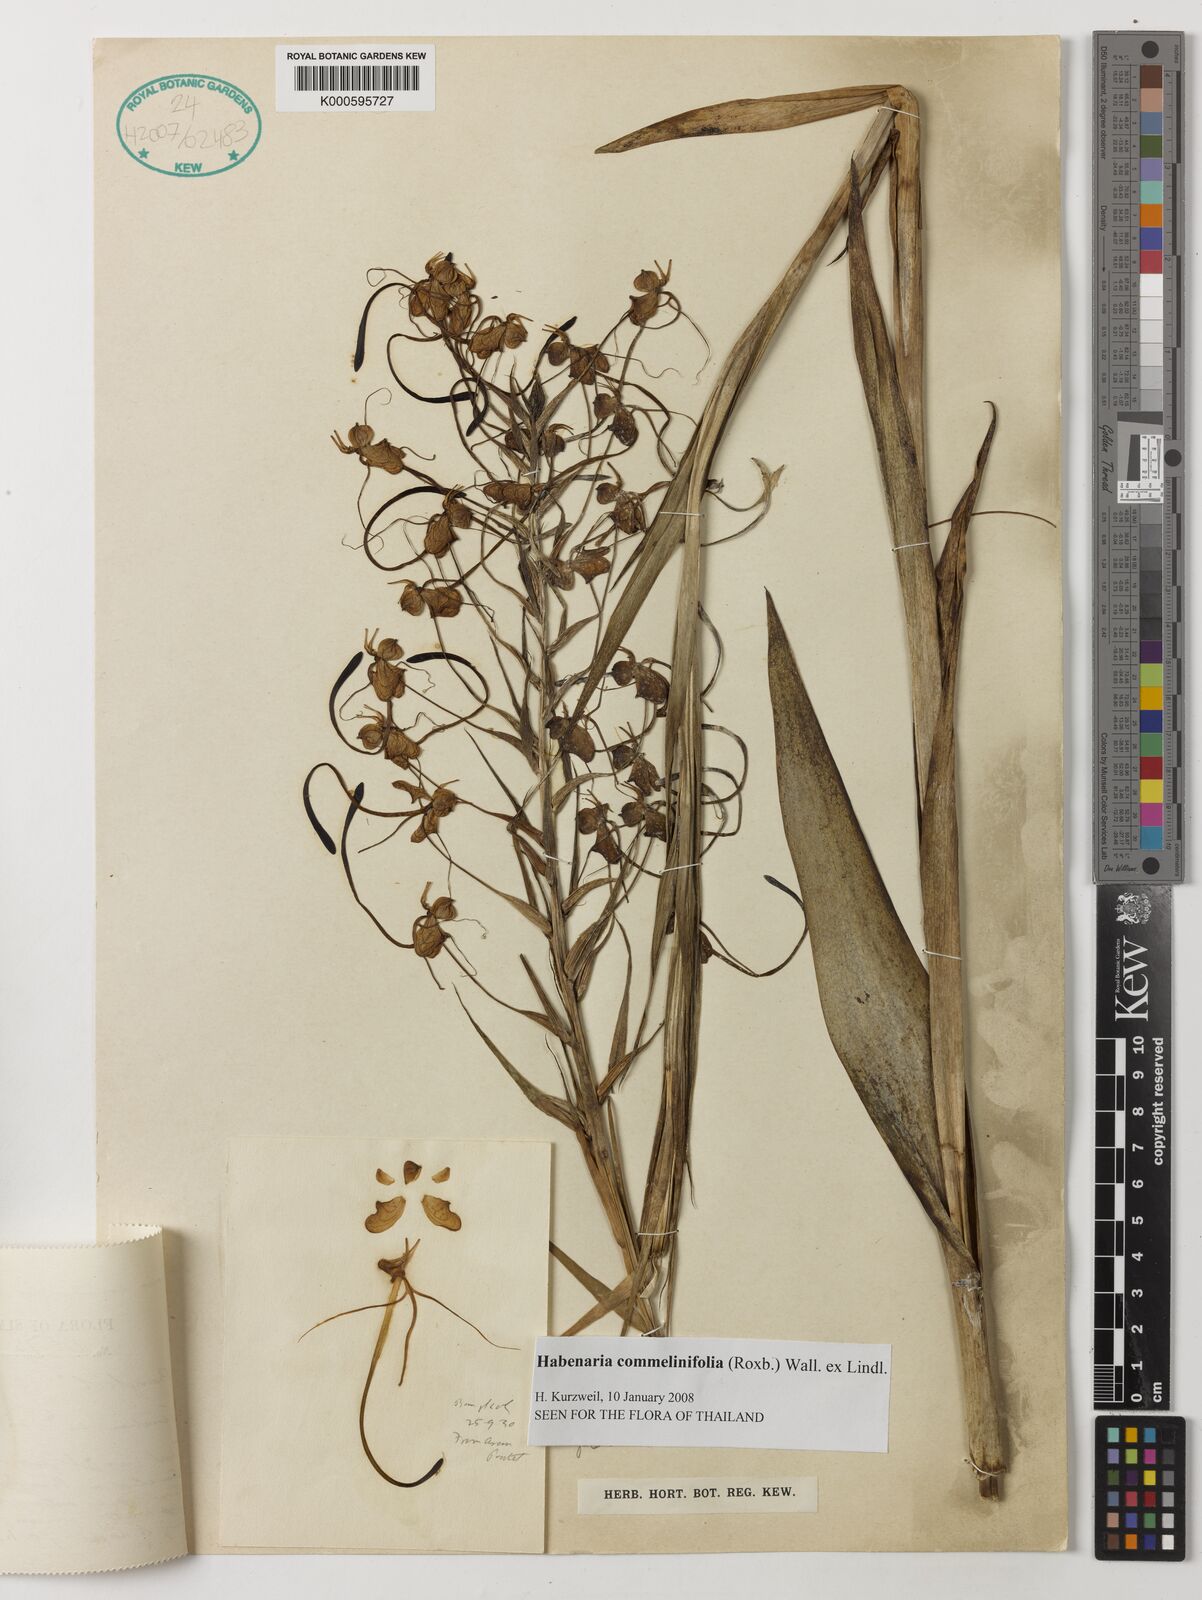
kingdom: Plantae
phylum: Tracheophyta
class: Liliopsida
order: Asparagales
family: Orchidaceae
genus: Habenaria
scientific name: Habenaria commelinifolia
